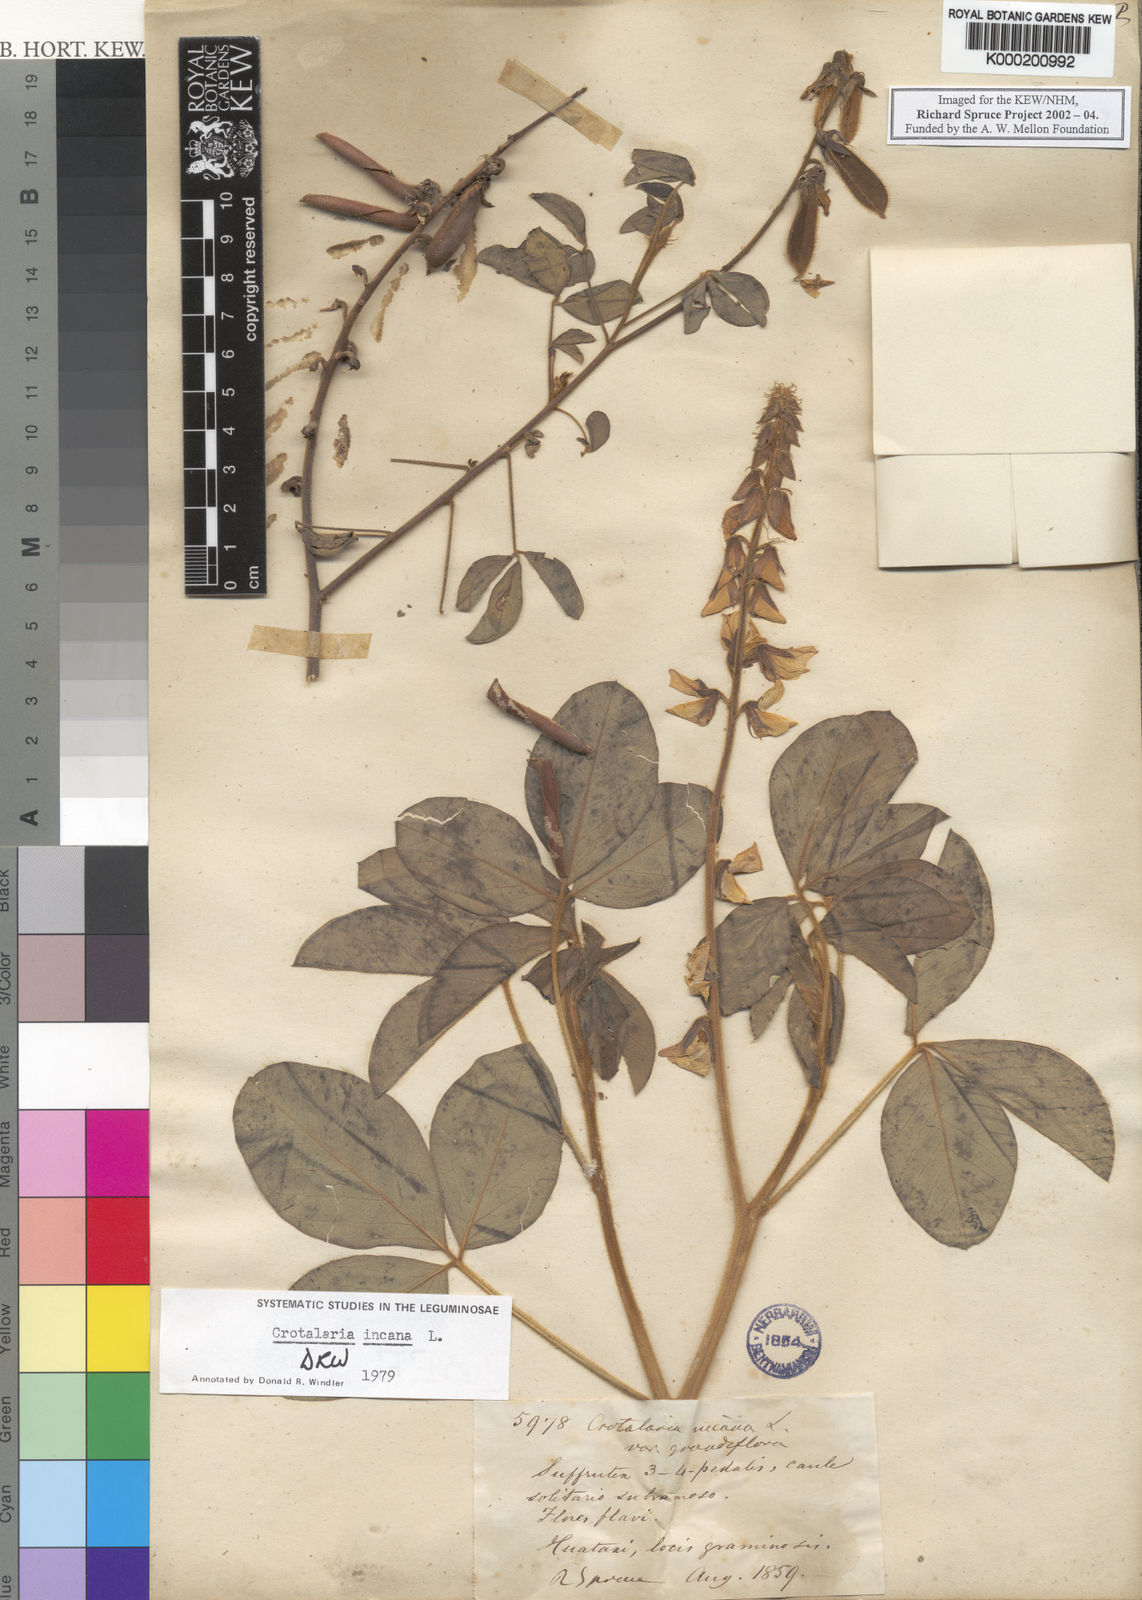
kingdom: Plantae
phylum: Tracheophyta
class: Magnoliopsida
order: Fabales
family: Fabaceae
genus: Crotalaria
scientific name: Crotalaria incana
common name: Shakeshake
